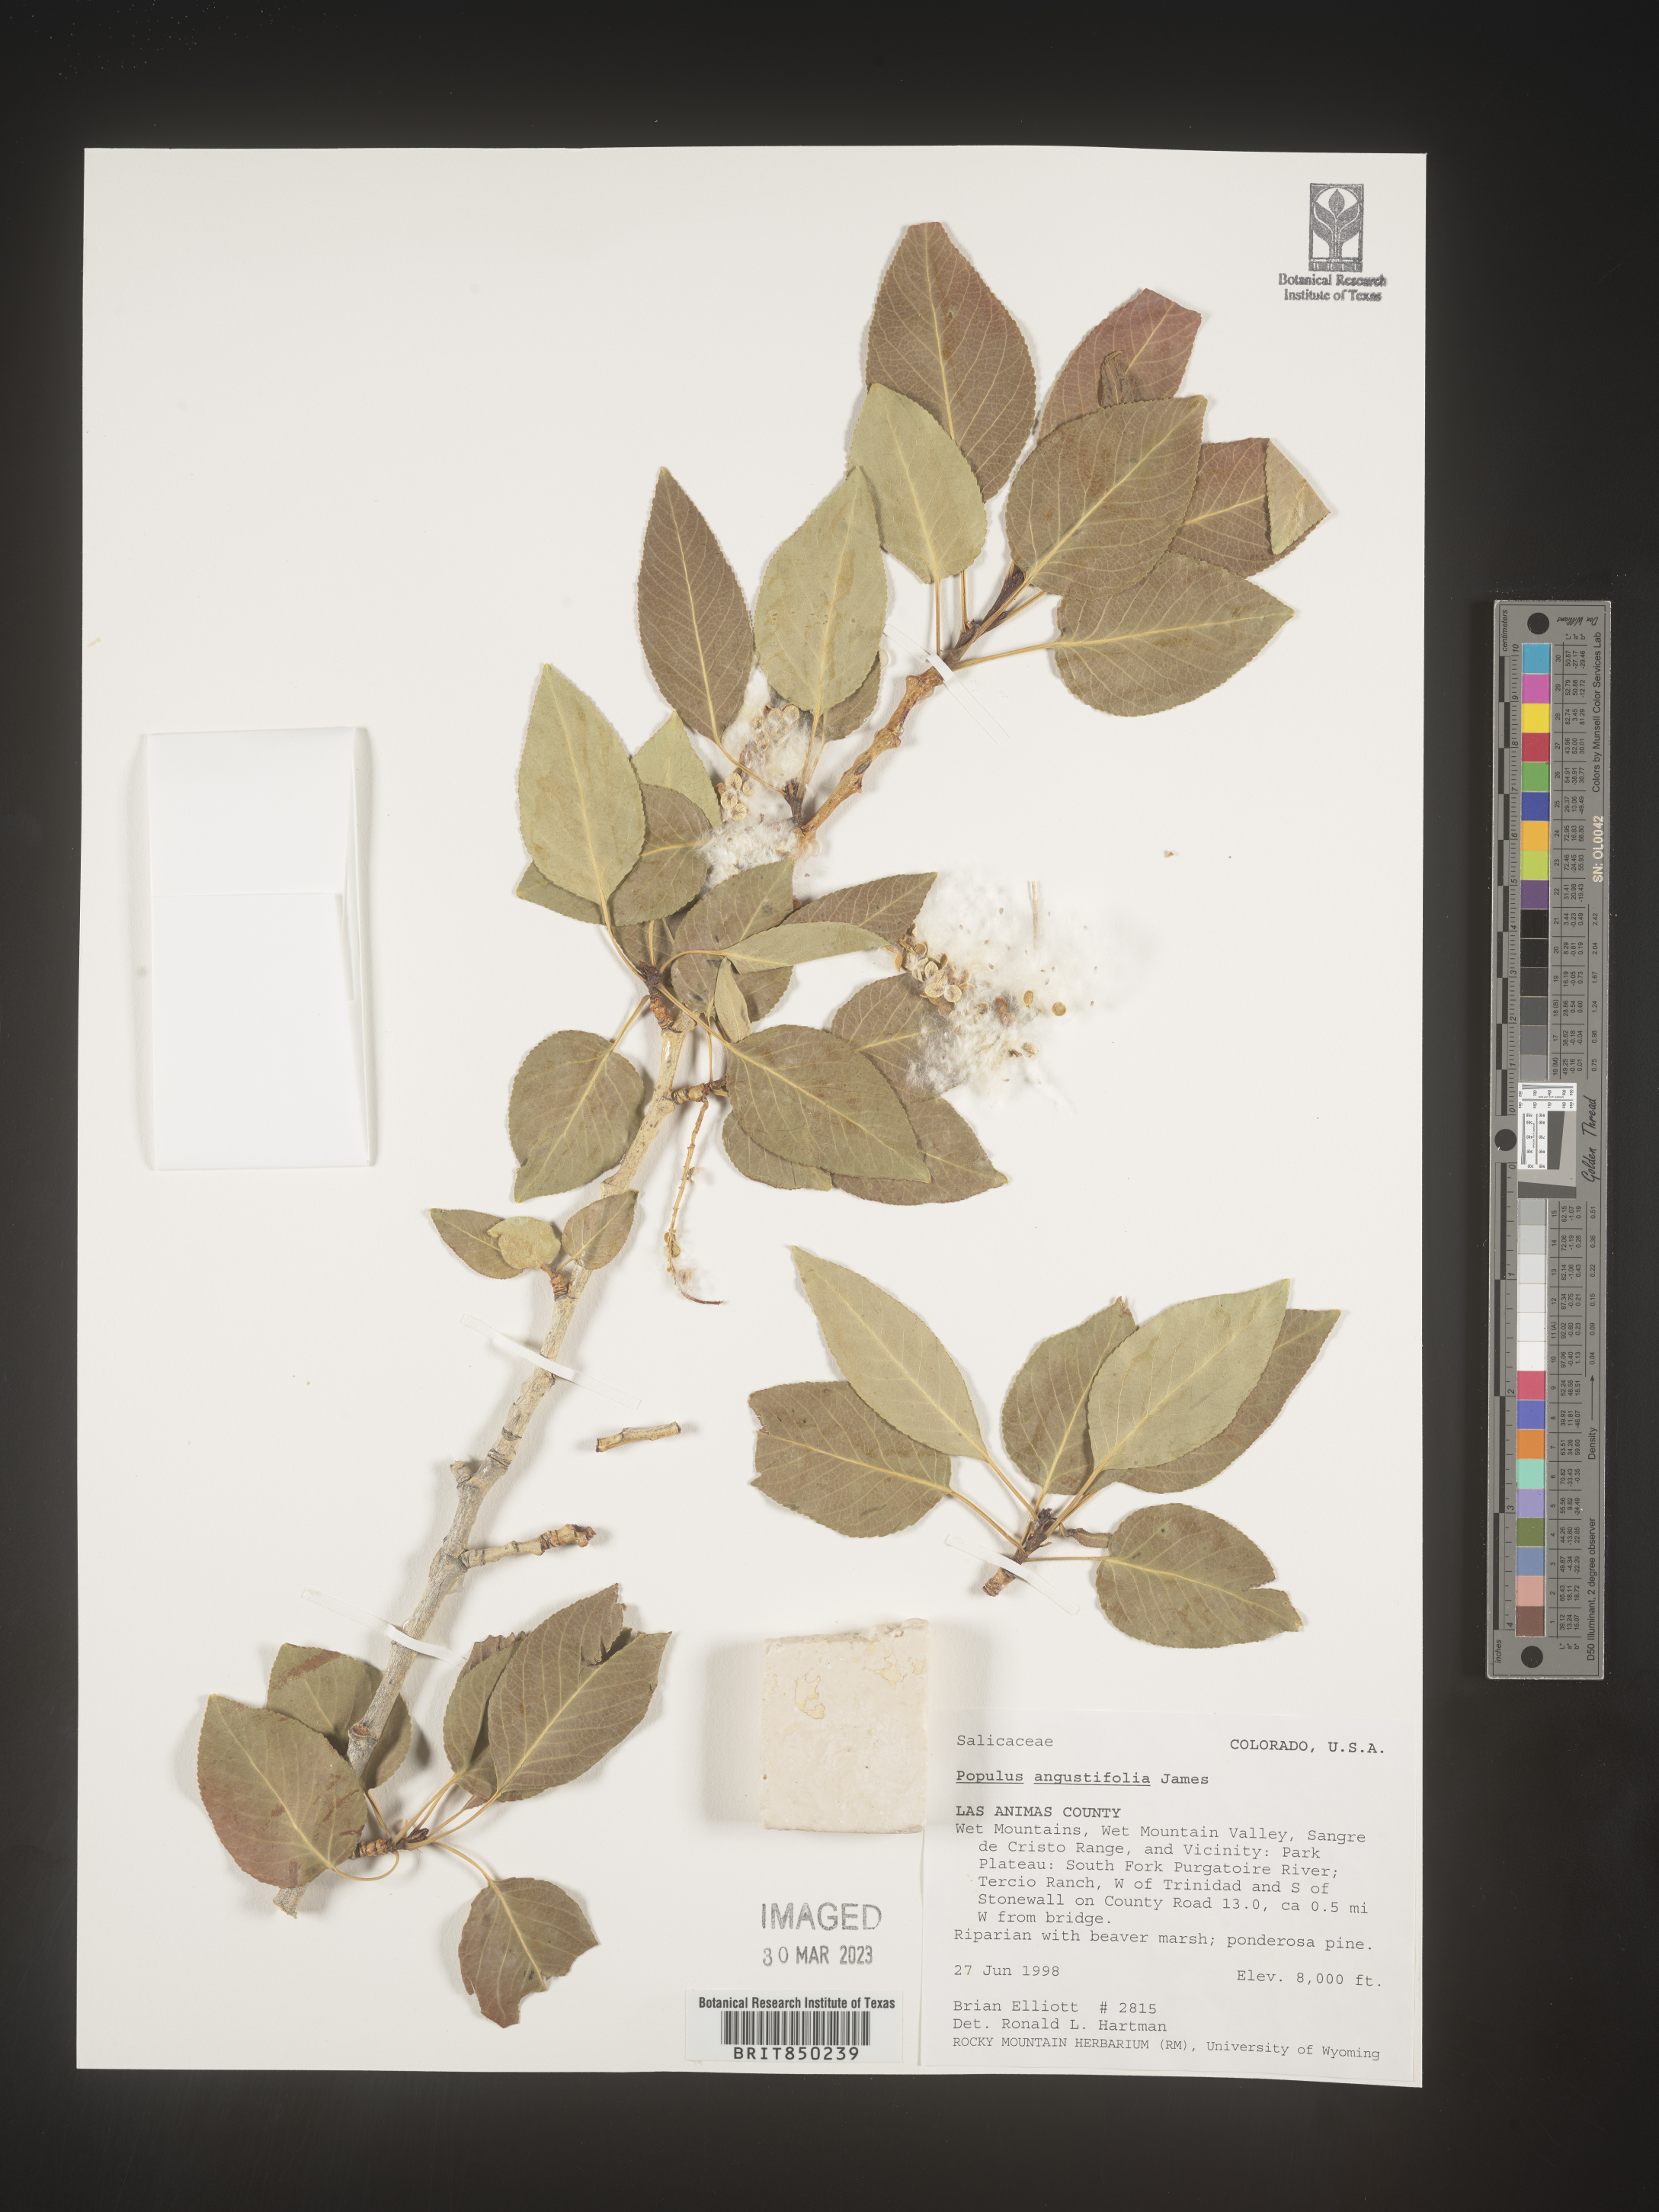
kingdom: Plantae
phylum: Tracheophyta
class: Magnoliopsida
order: Malpighiales
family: Salicaceae
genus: Populus
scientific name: Populus angustifolia
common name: Willow cottonwood
